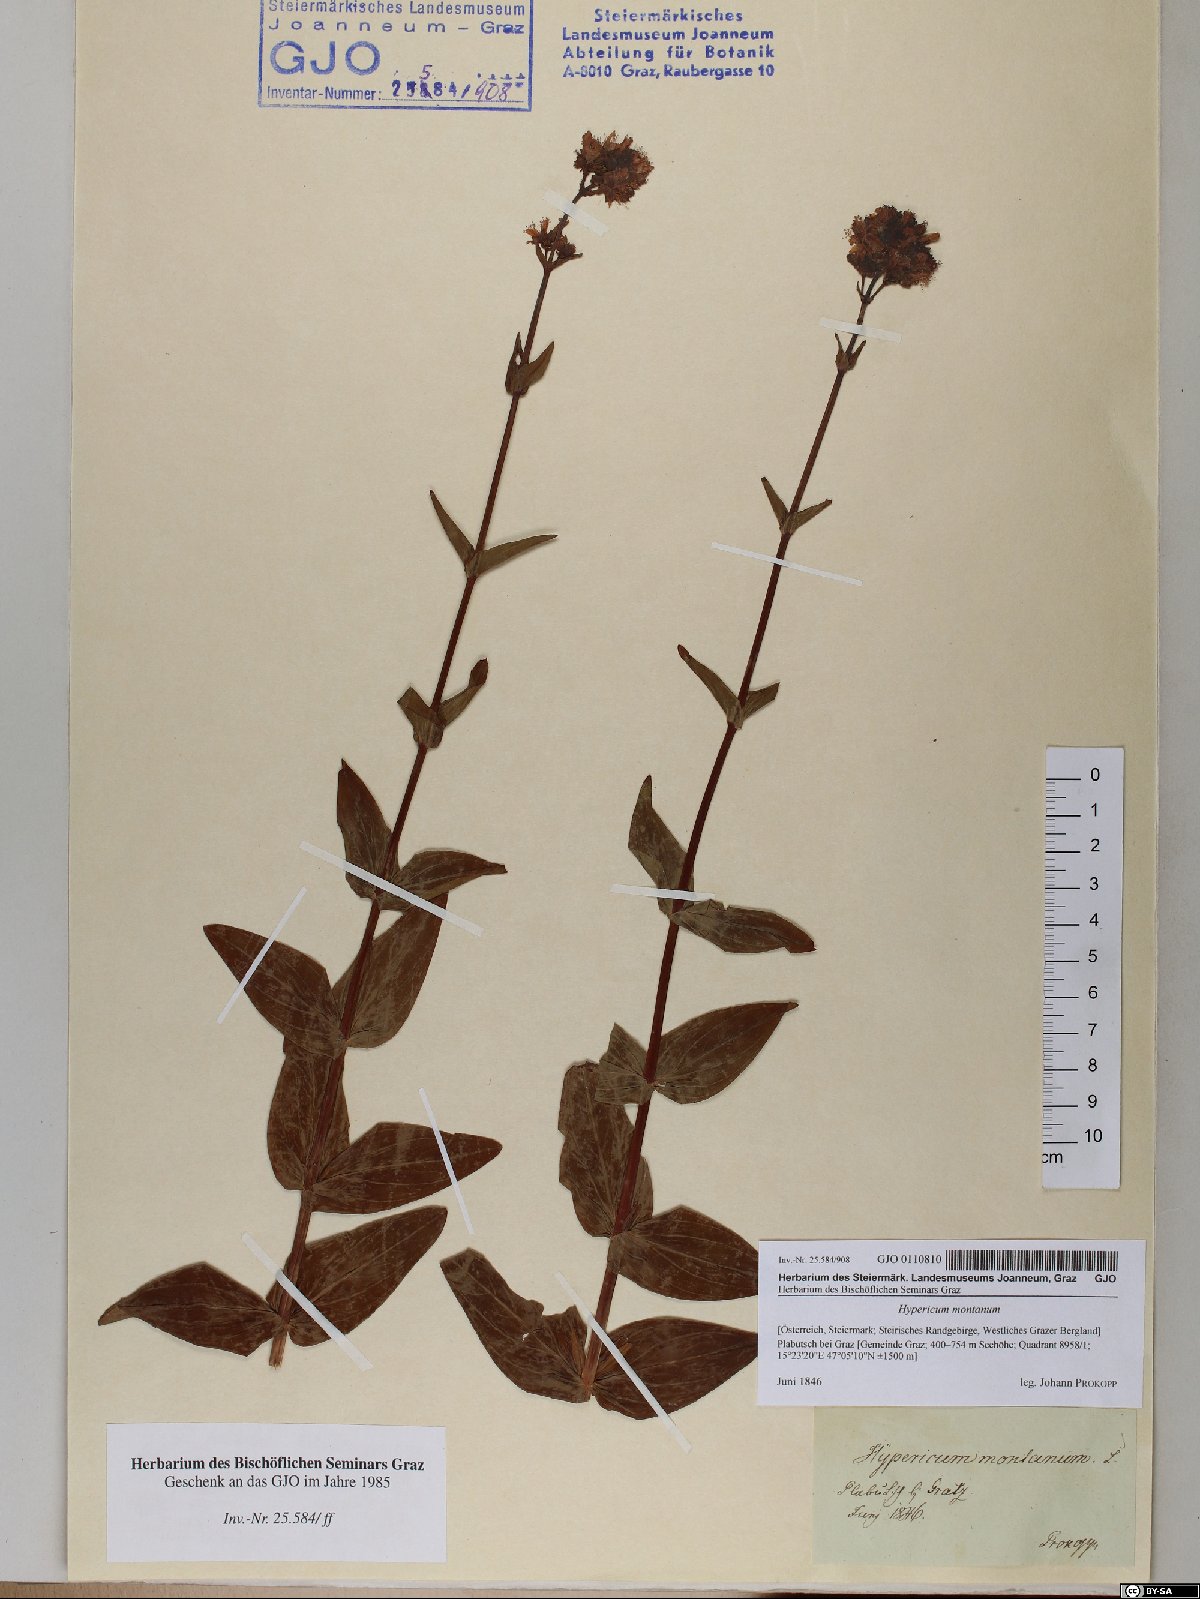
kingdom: Plantae
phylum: Tracheophyta
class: Magnoliopsida
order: Malpighiales
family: Hypericaceae
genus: Hypericum
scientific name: Hypericum montanum
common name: Pale st. john's-wort
